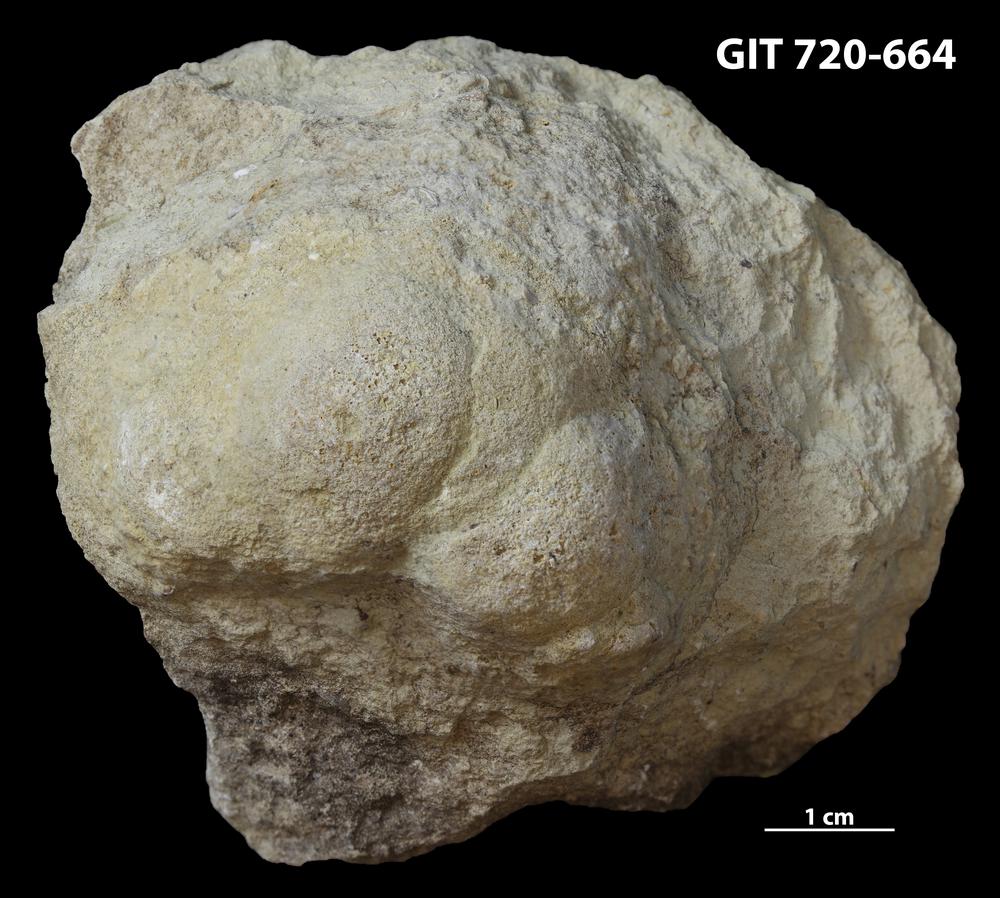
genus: Conichnus
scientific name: Conichnus
